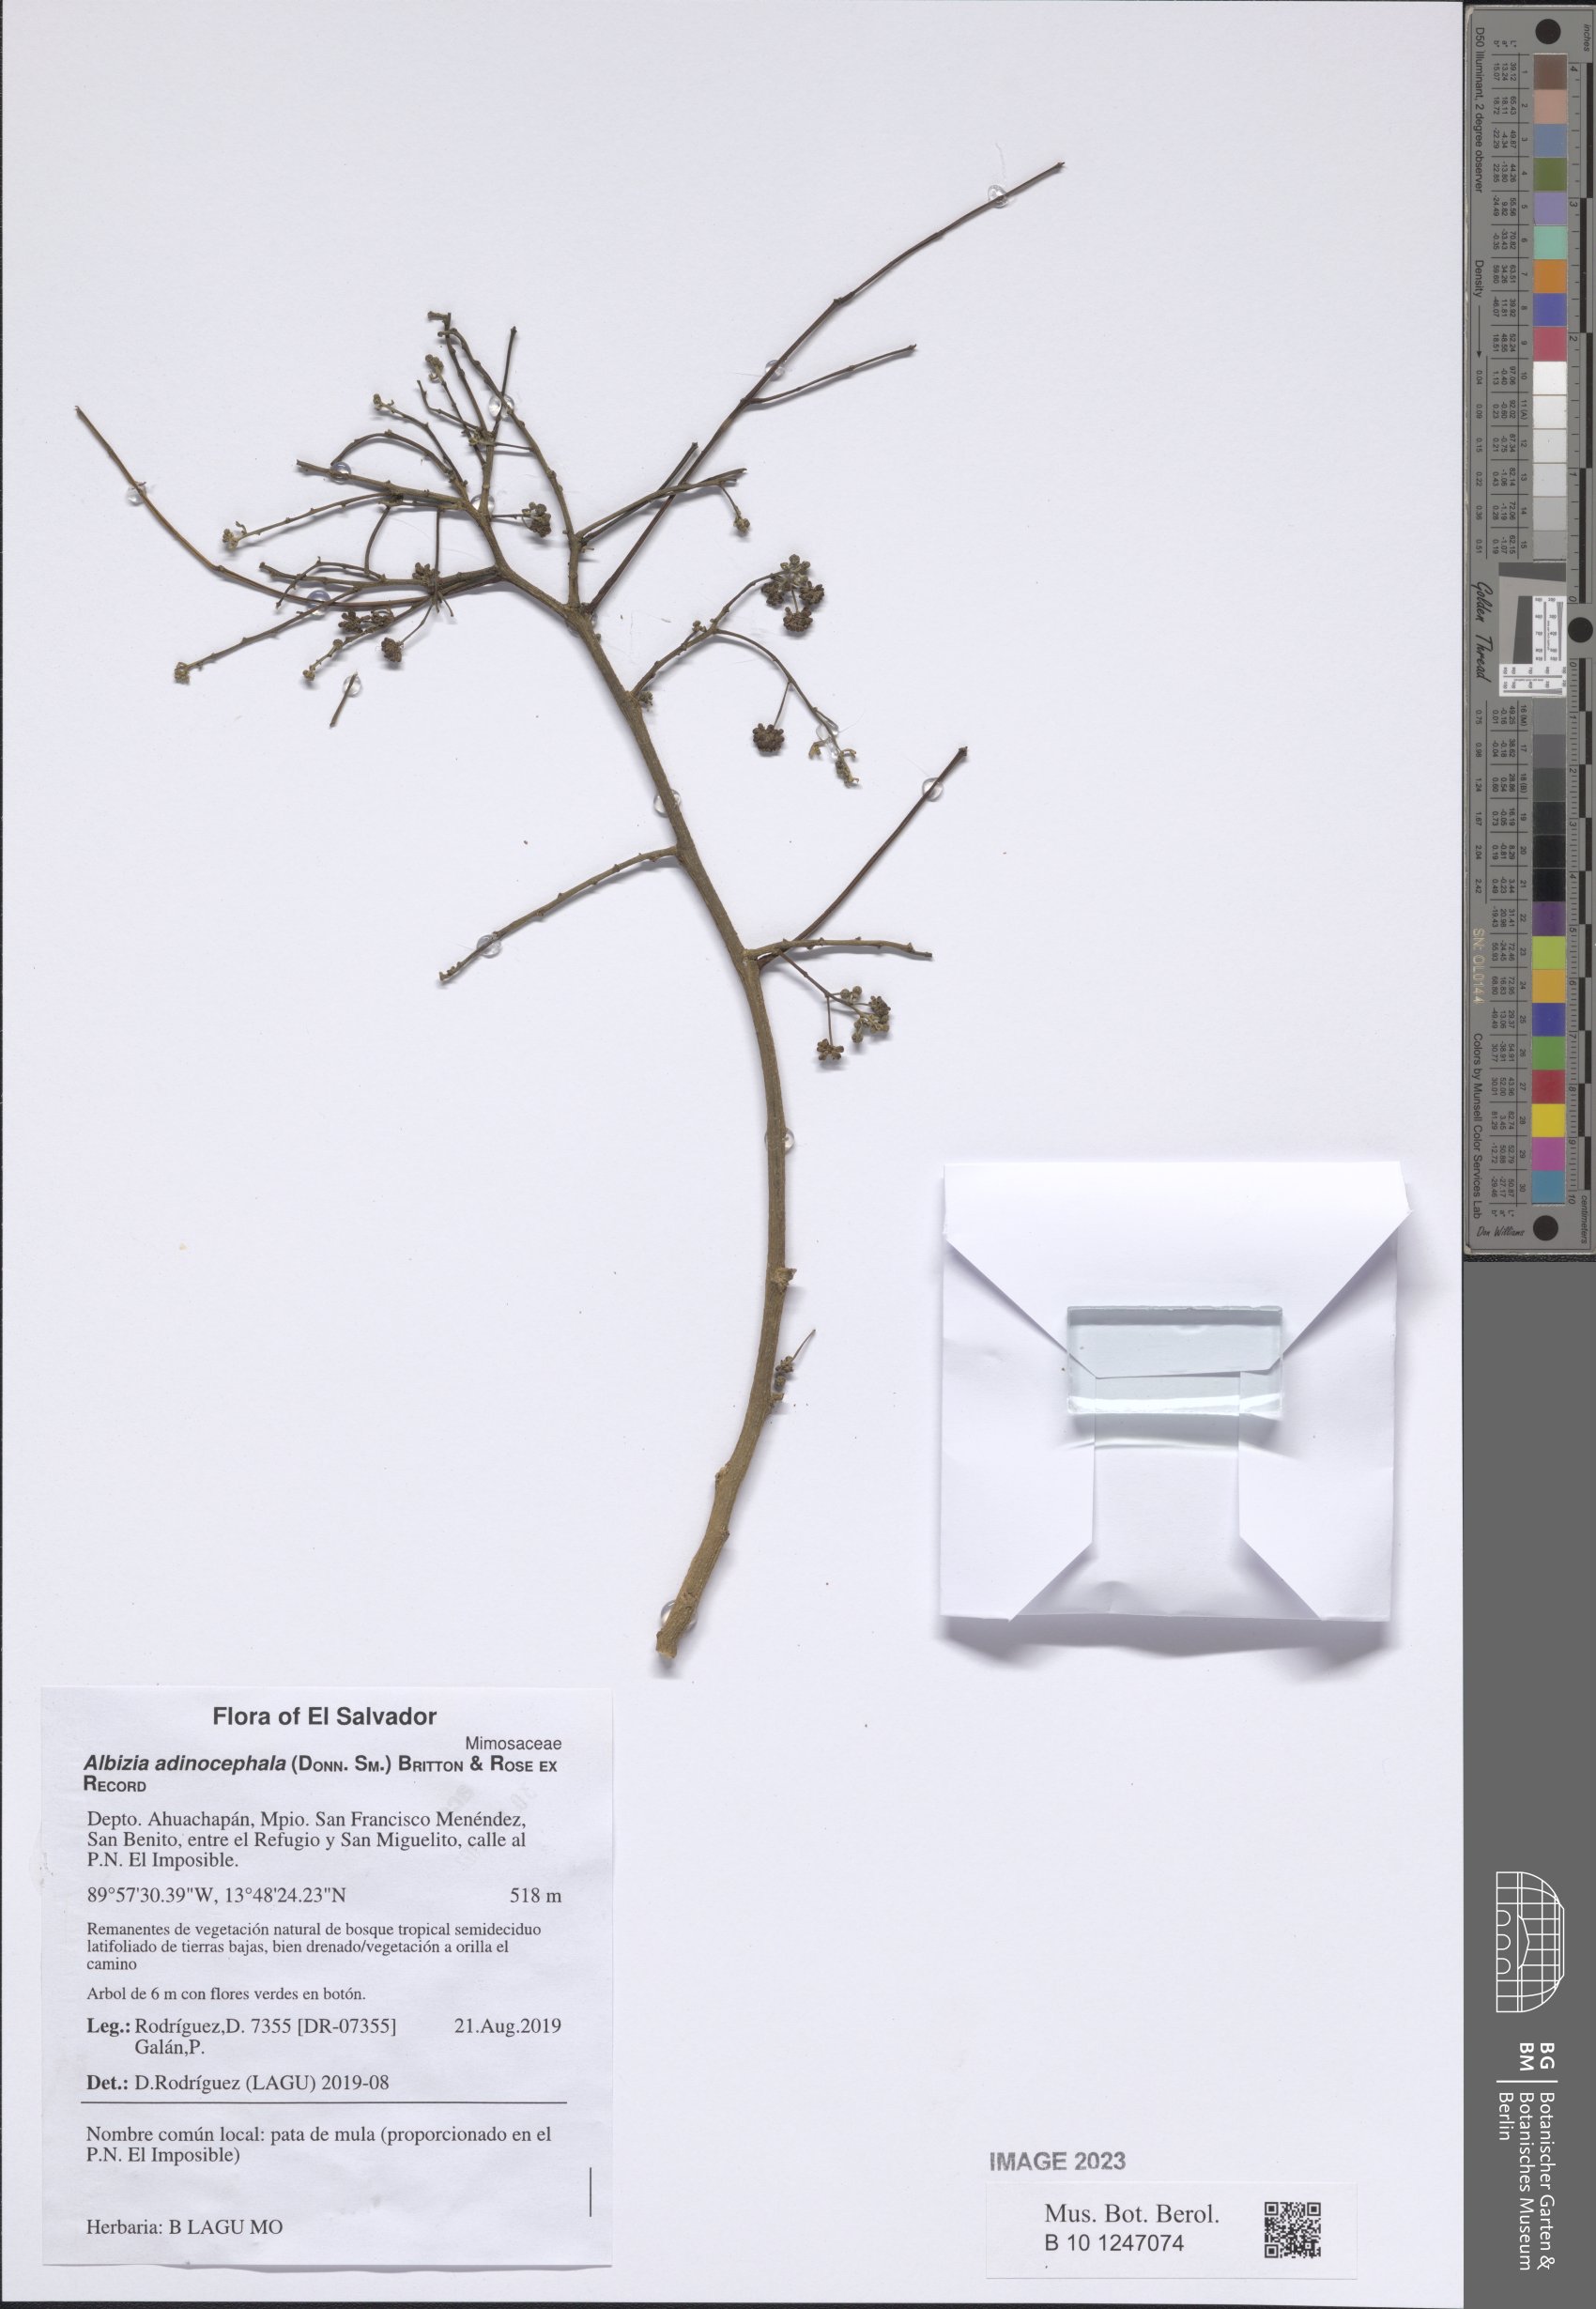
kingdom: Plantae
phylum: Tracheophyta
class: Magnoliopsida
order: Fabales
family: Fabaceae
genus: Albizia
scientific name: Albizia adinocephala
